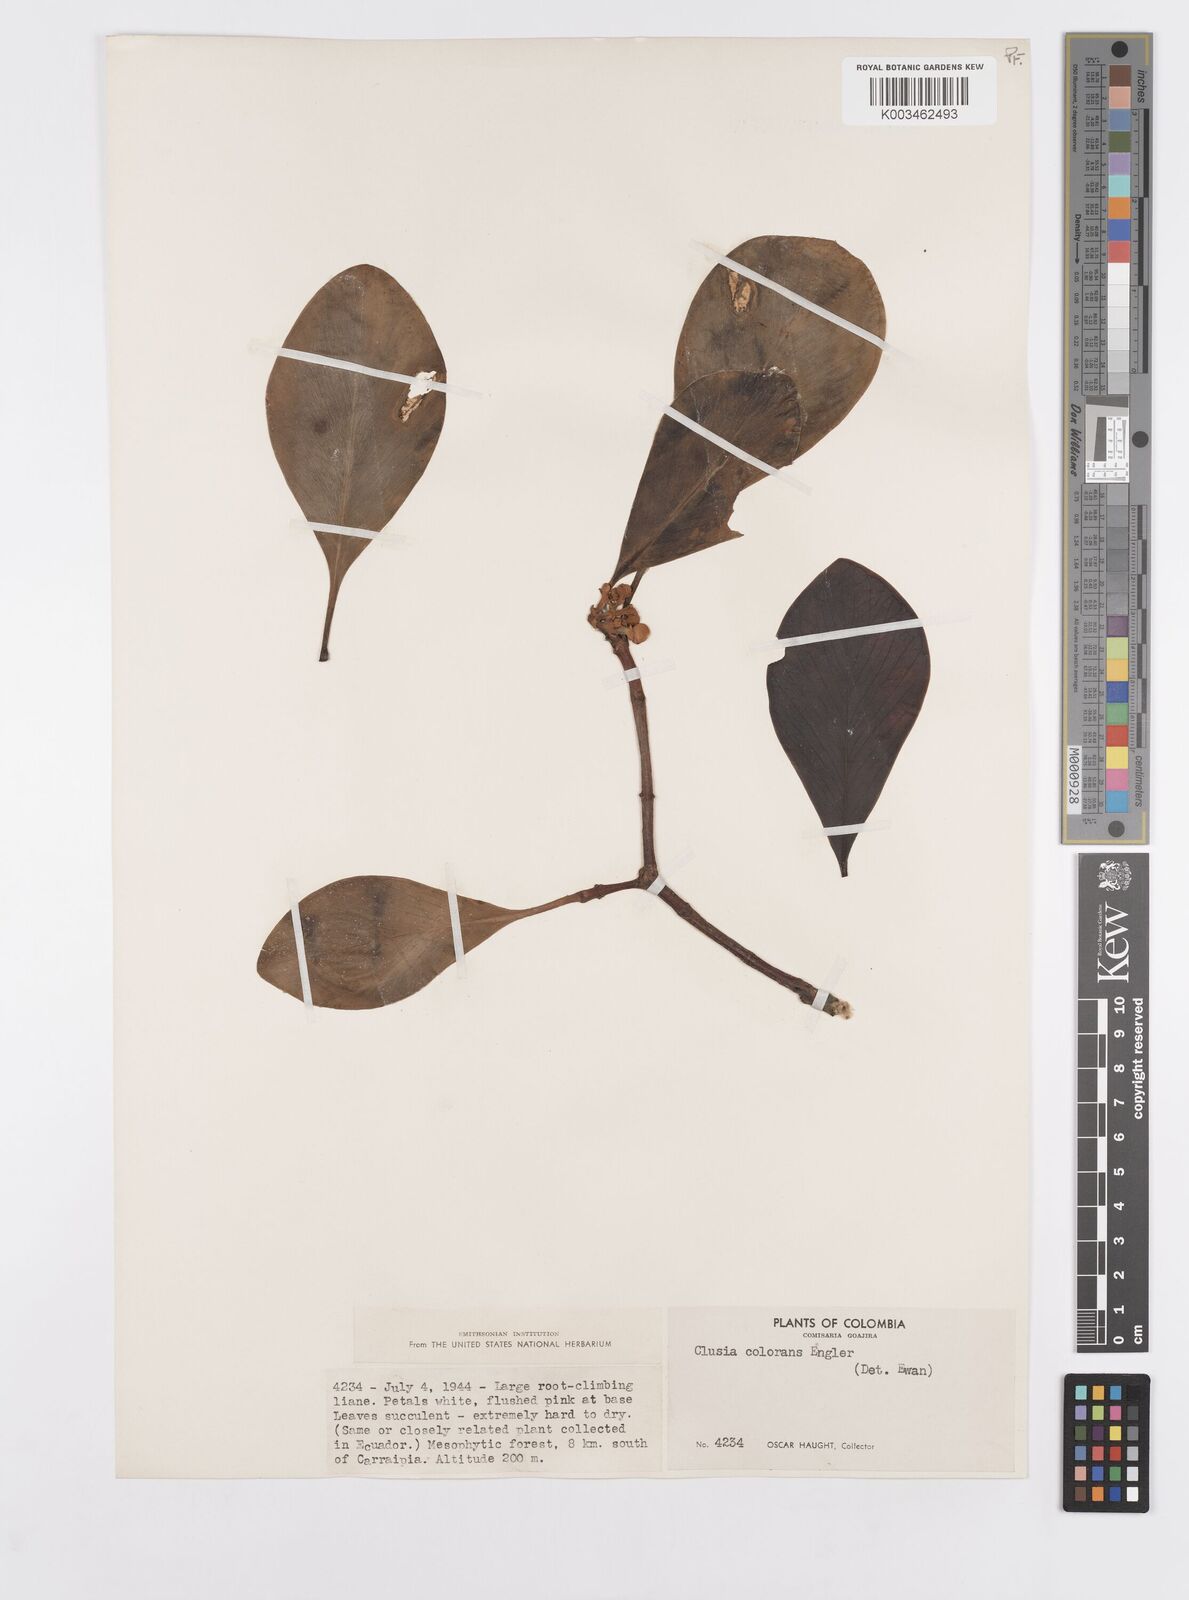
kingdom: Plantae
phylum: Tracheophyta
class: Magnoliopsida
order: Malpighiales
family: Clusiaceae
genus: Clusia
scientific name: Clusia panapanari
